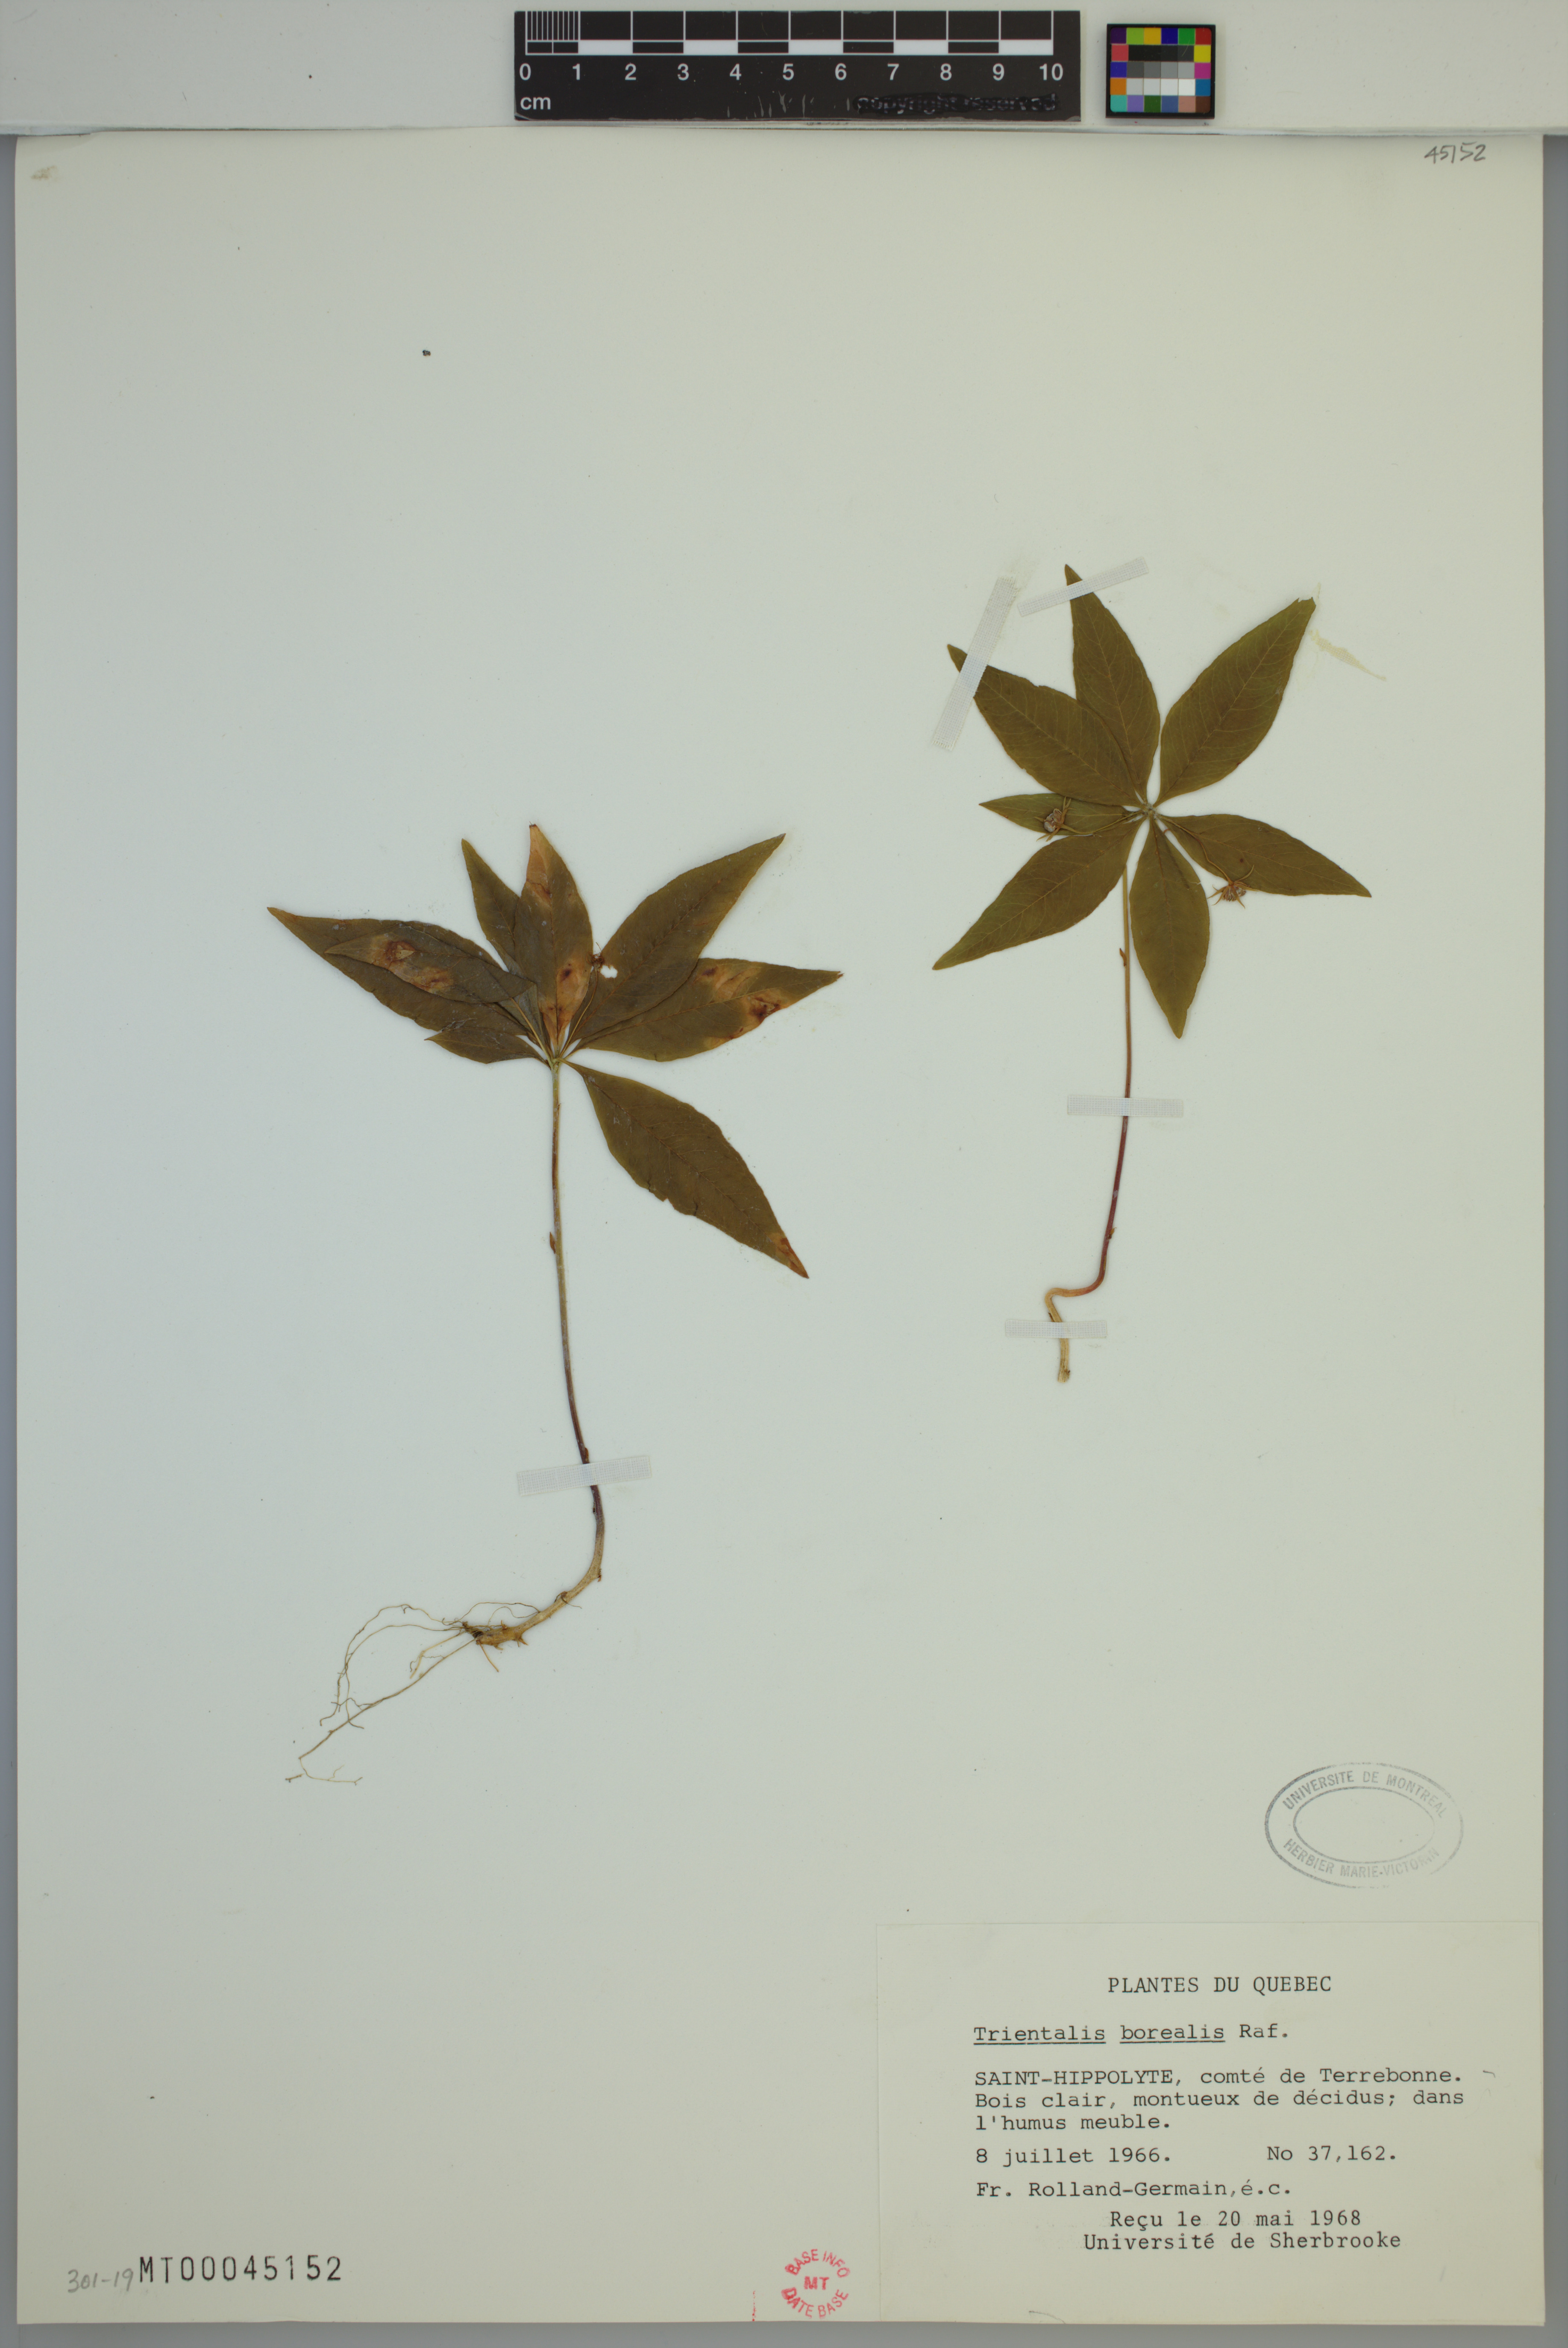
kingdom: Plantae
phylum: Tracheophyta
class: Magnoliopsida
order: Ericales
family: Primulaceae
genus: Lysimachia
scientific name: Lysimachia borealis
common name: American starflower
